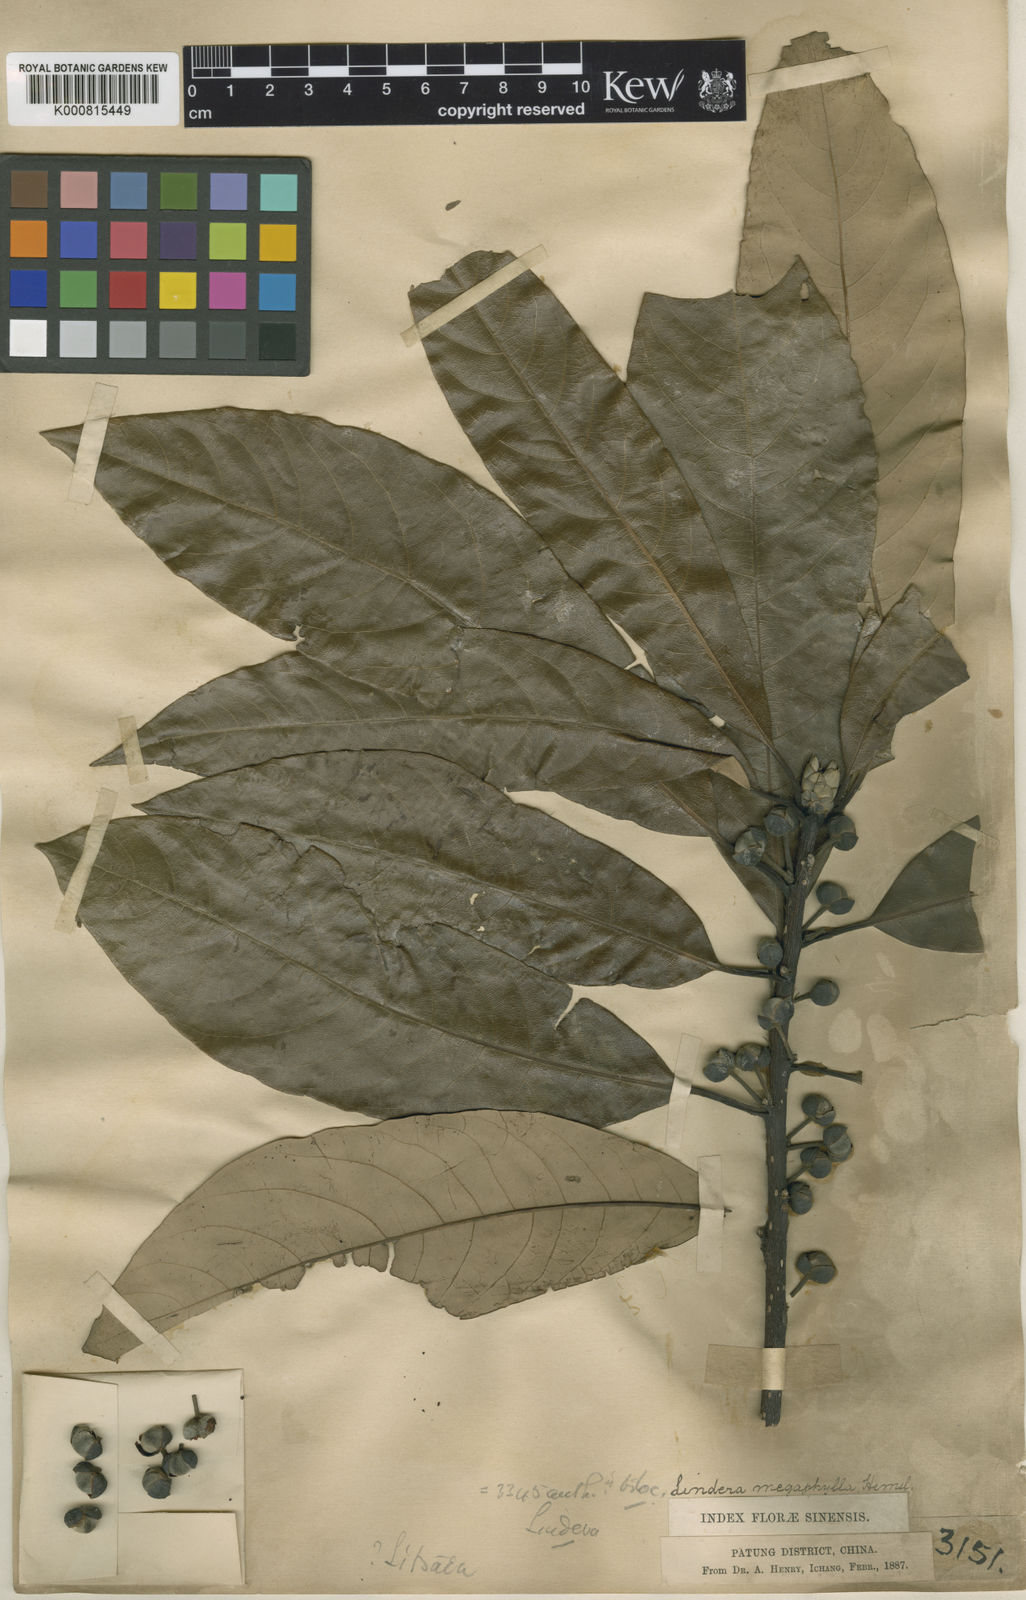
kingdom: Plantae
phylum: Tracheophyta
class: Magnoliopsida
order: Laurales
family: Lauraceae
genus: Lindera
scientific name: Lindera megaphylla
